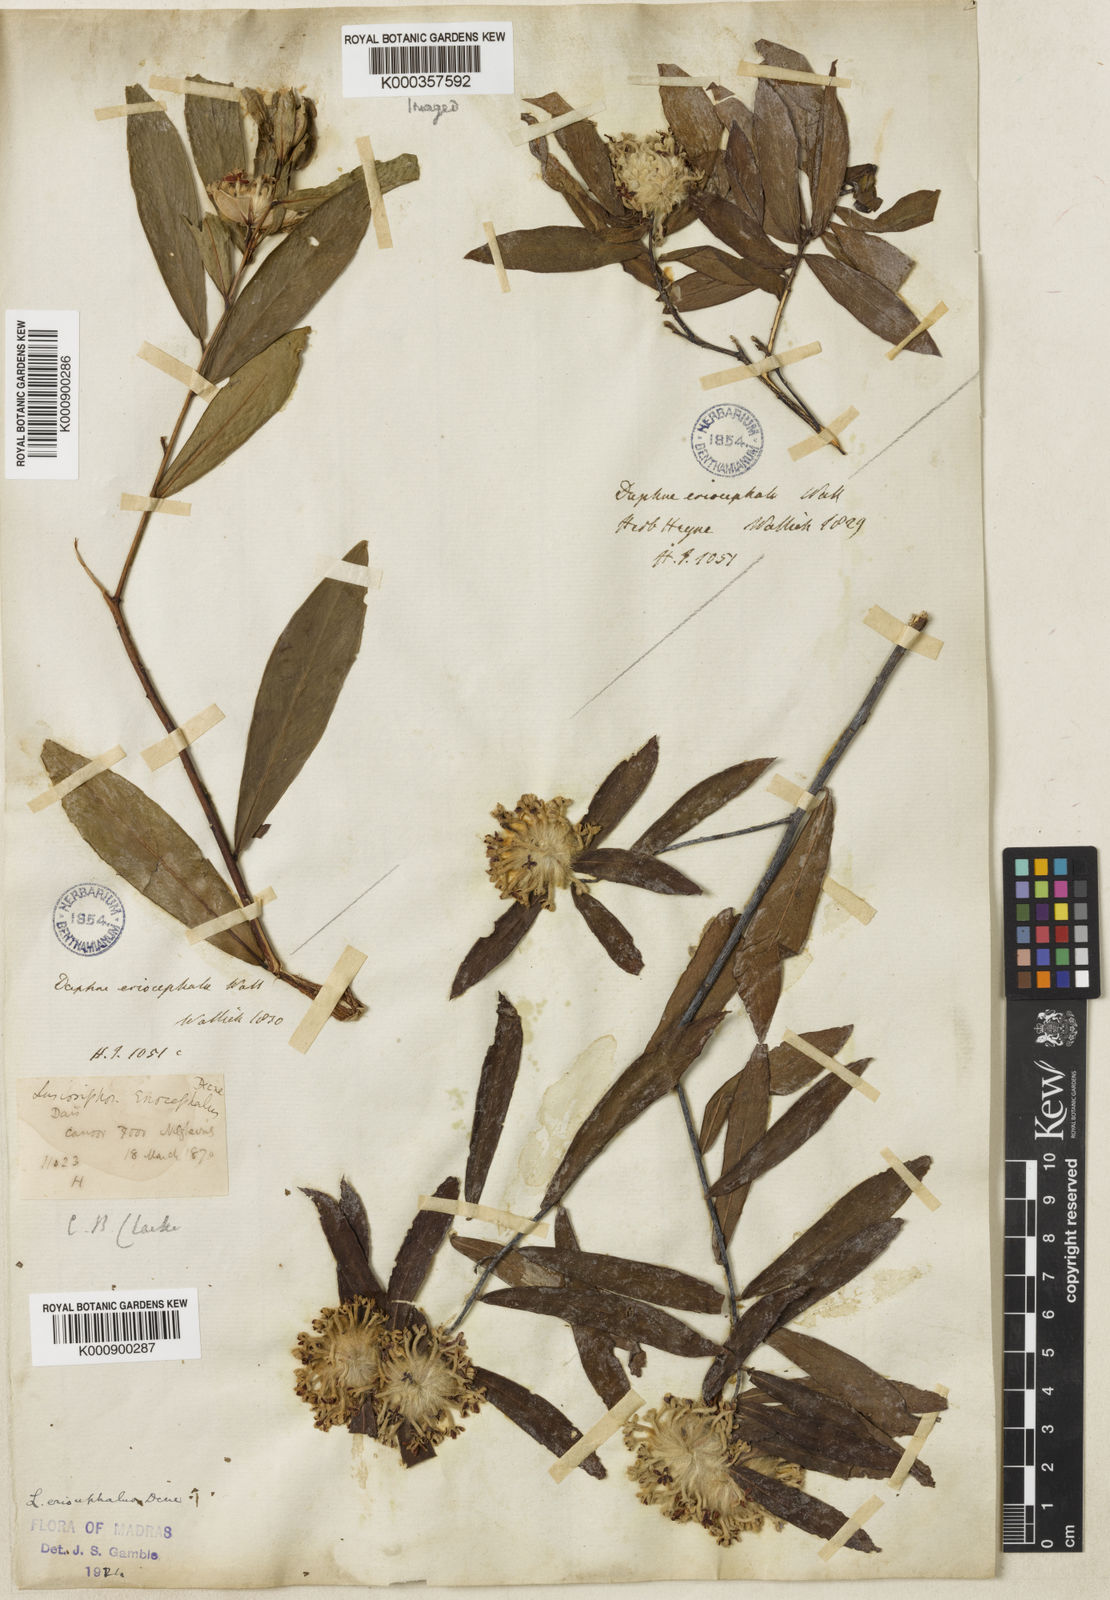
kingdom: Plantae
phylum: Tracheophyta
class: Magnoliopsida
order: Malvales
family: Thymelaeaceae
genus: Gnidia
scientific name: Gnidia glauca
